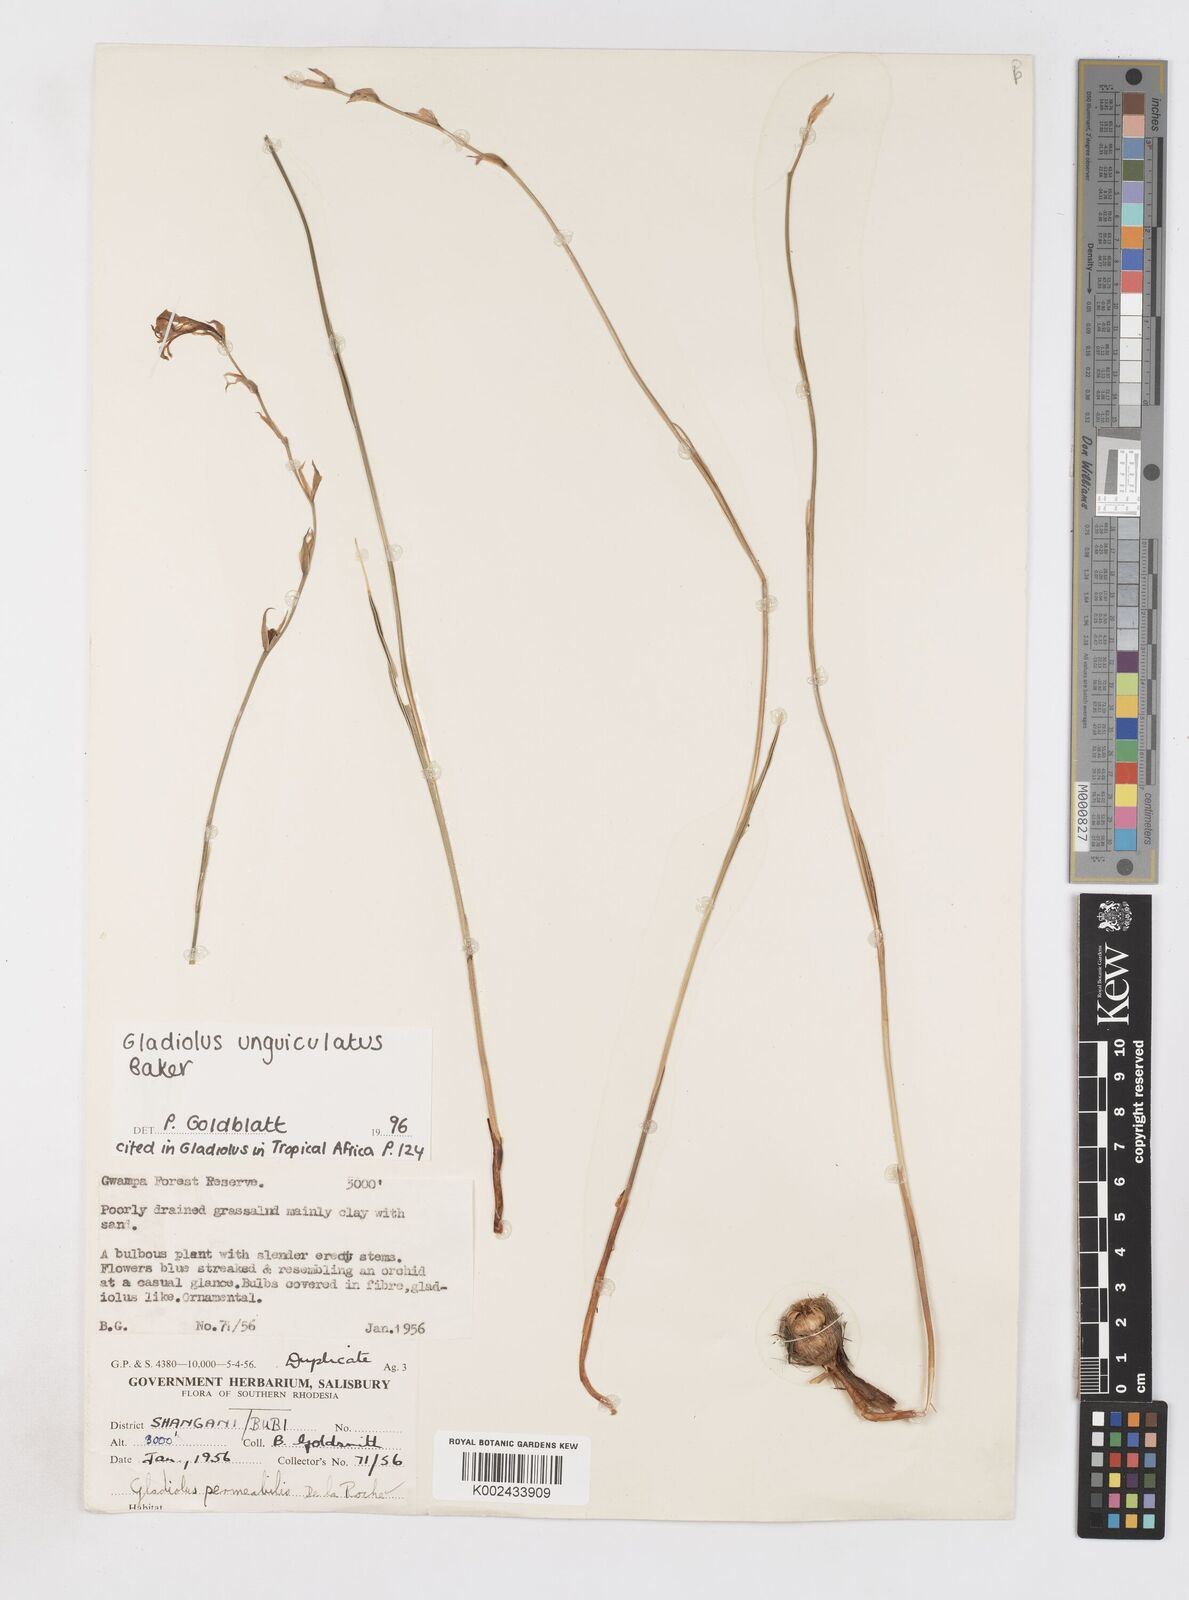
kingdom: Plantae
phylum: Tracheophyta
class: Liliopsida
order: Asparagales
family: Iridaceae
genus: Gladiolus
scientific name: Gladiolus unguiculatus
